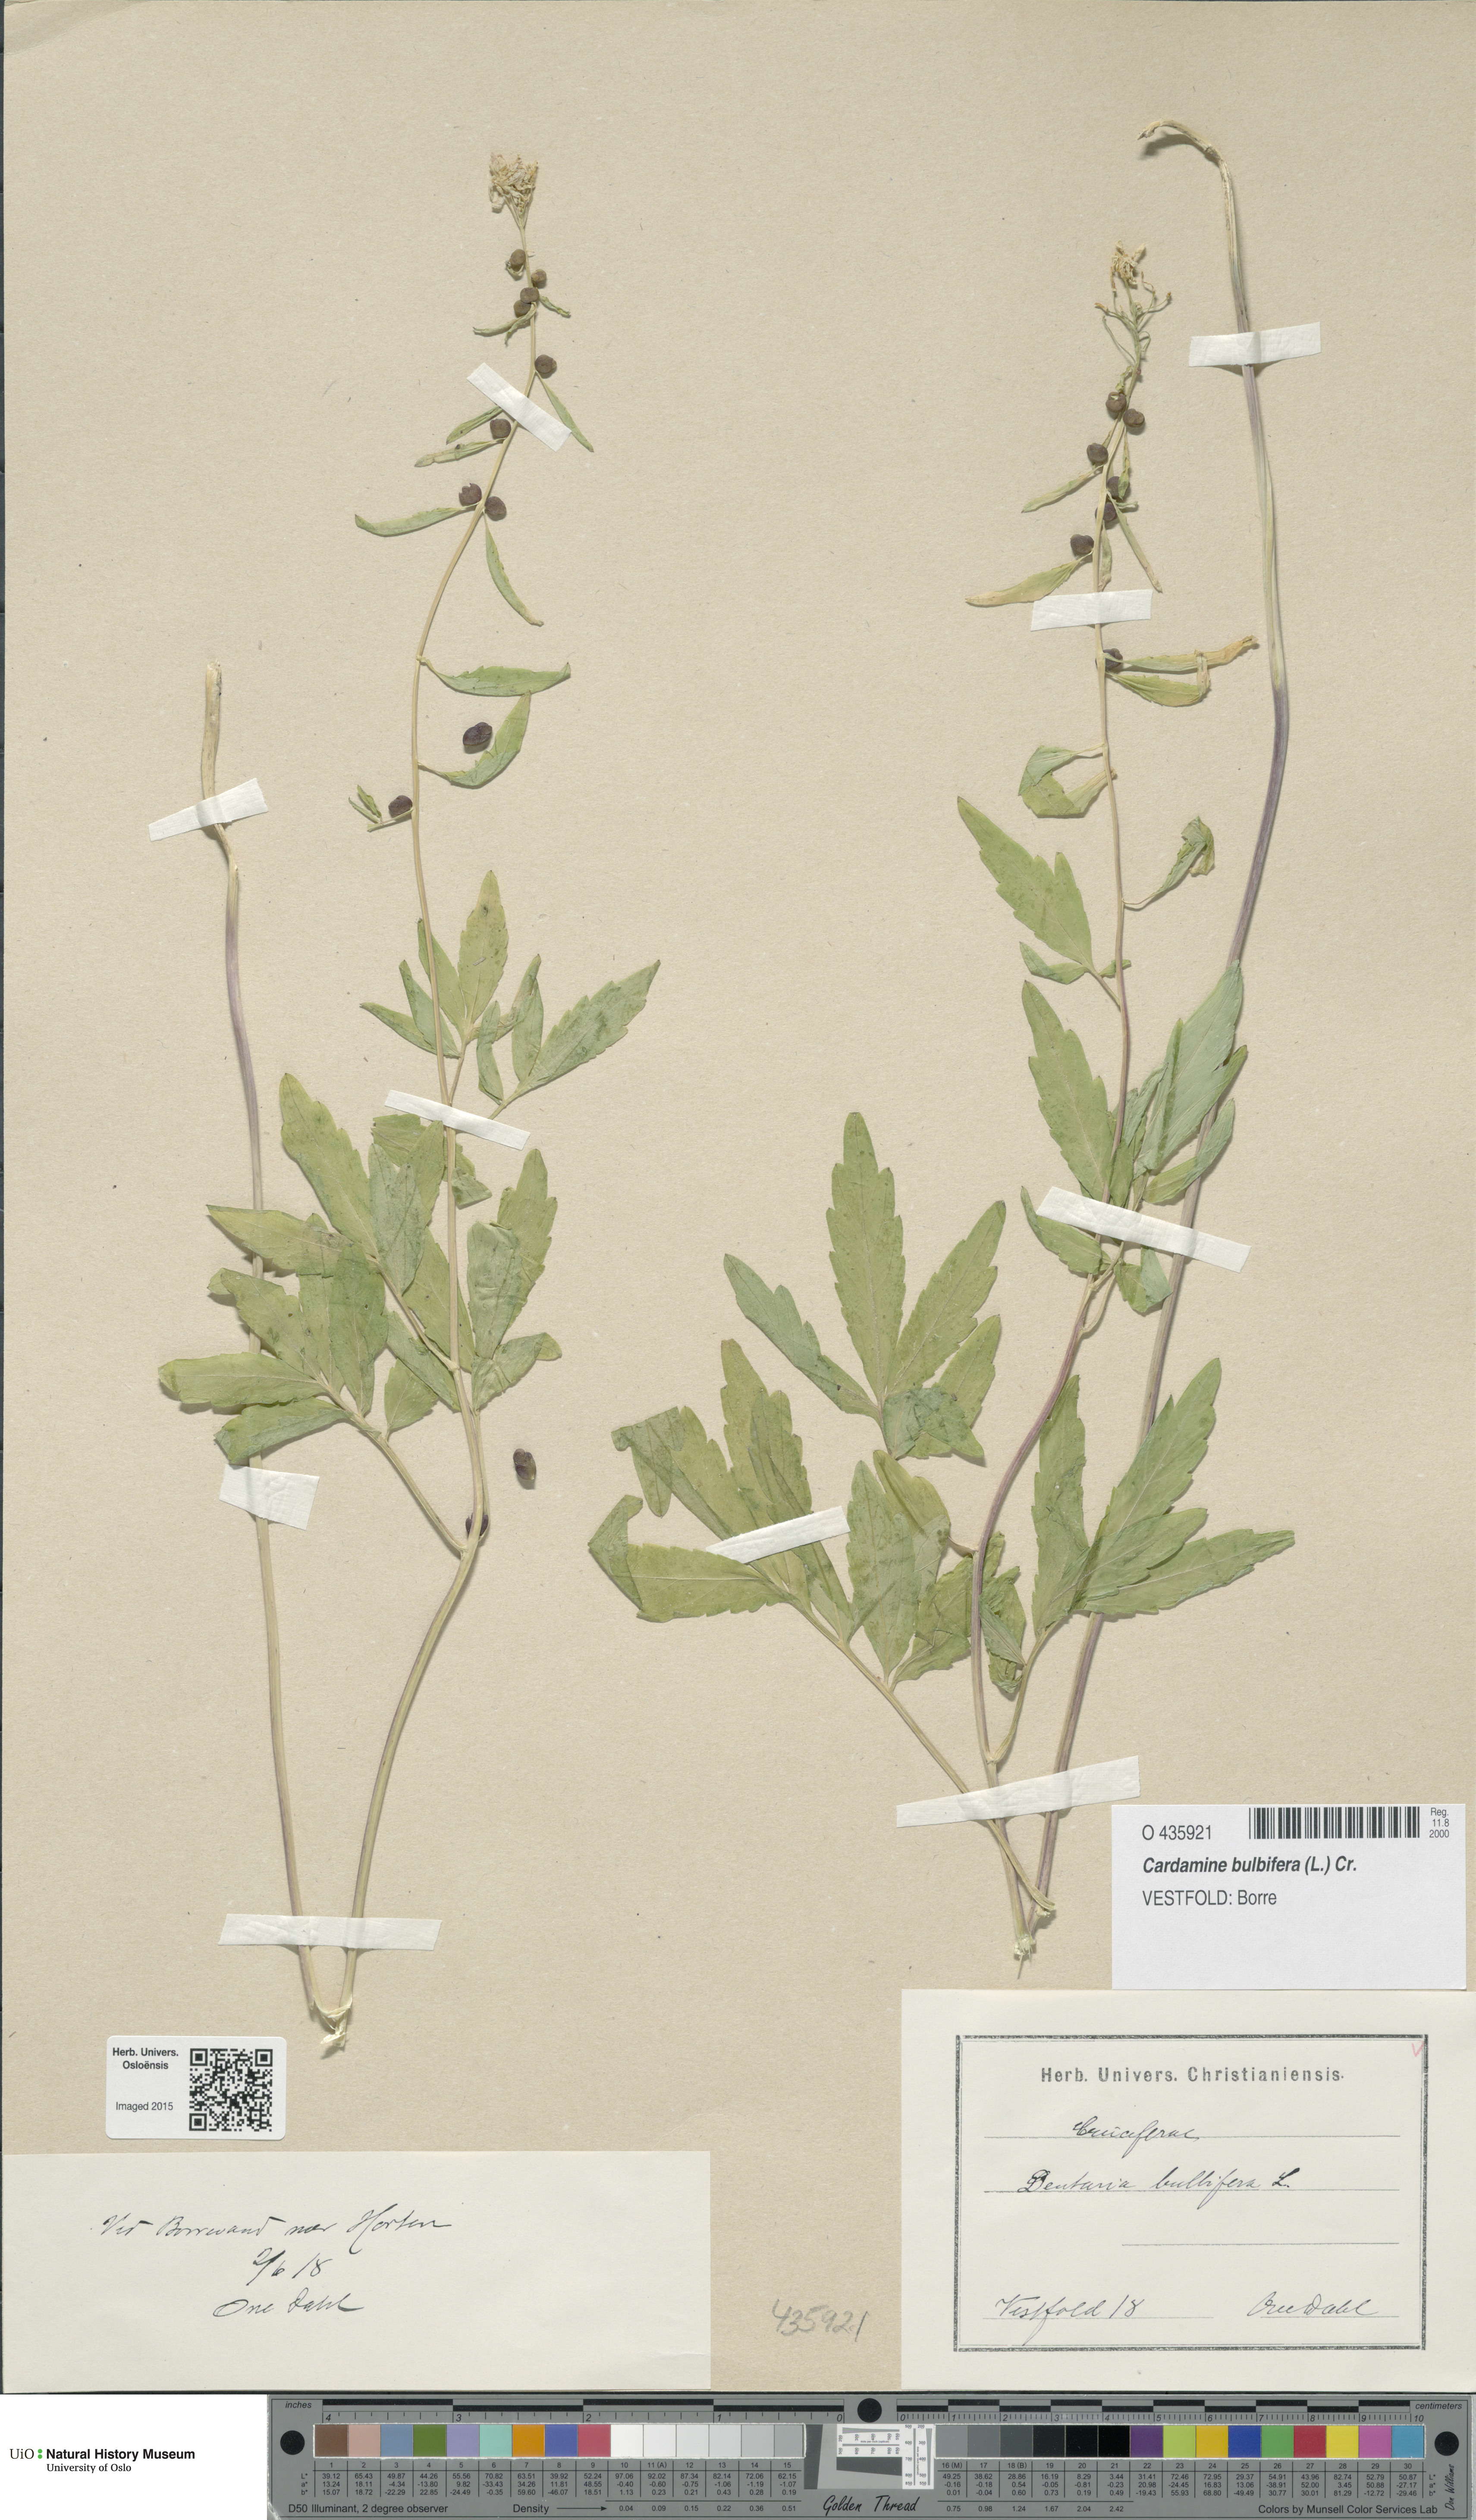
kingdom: Plantae
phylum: Tracheophyta
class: Magnoliopsida
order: Brassicales
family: Brassicaceae
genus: Cardamine
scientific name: Cardamine bulbifera
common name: Coralroot bittercress
